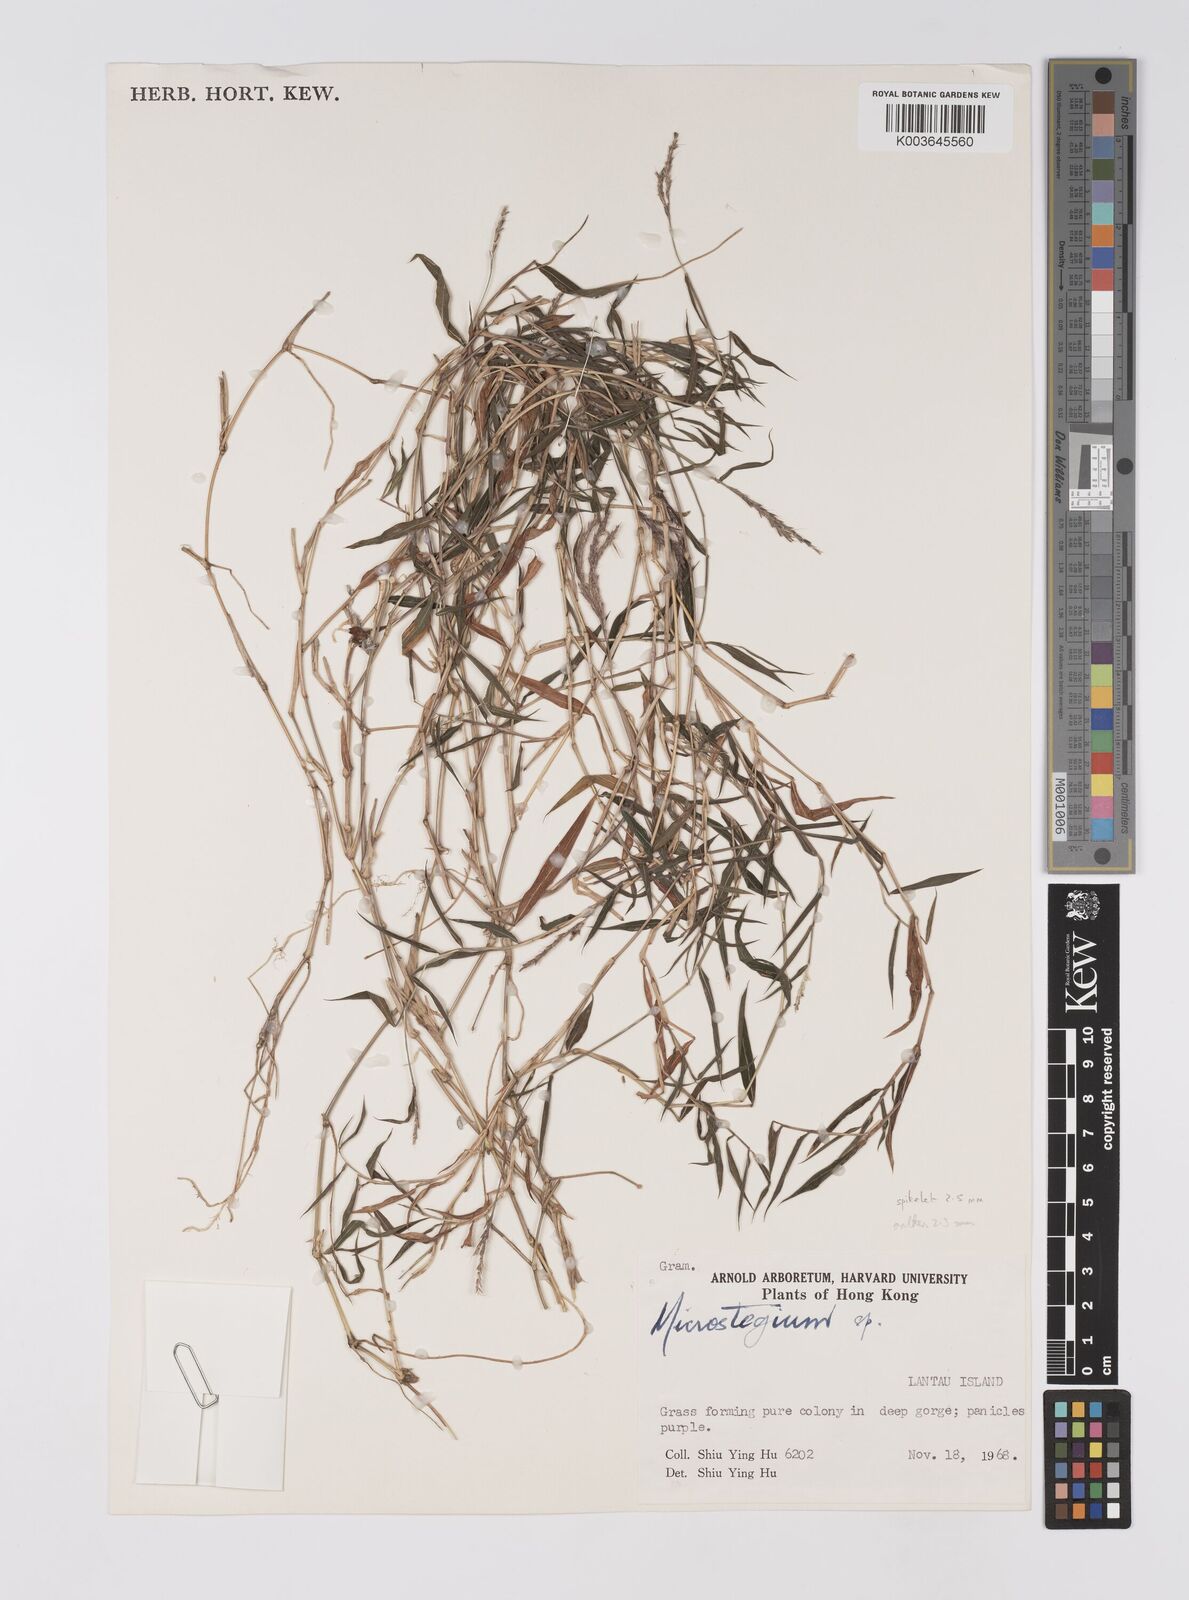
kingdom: Plantae
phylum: Tracheophyta
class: Liliopsida
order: Poales
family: Poaceae
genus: Microstegium
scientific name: Microstegium fasciculatum
